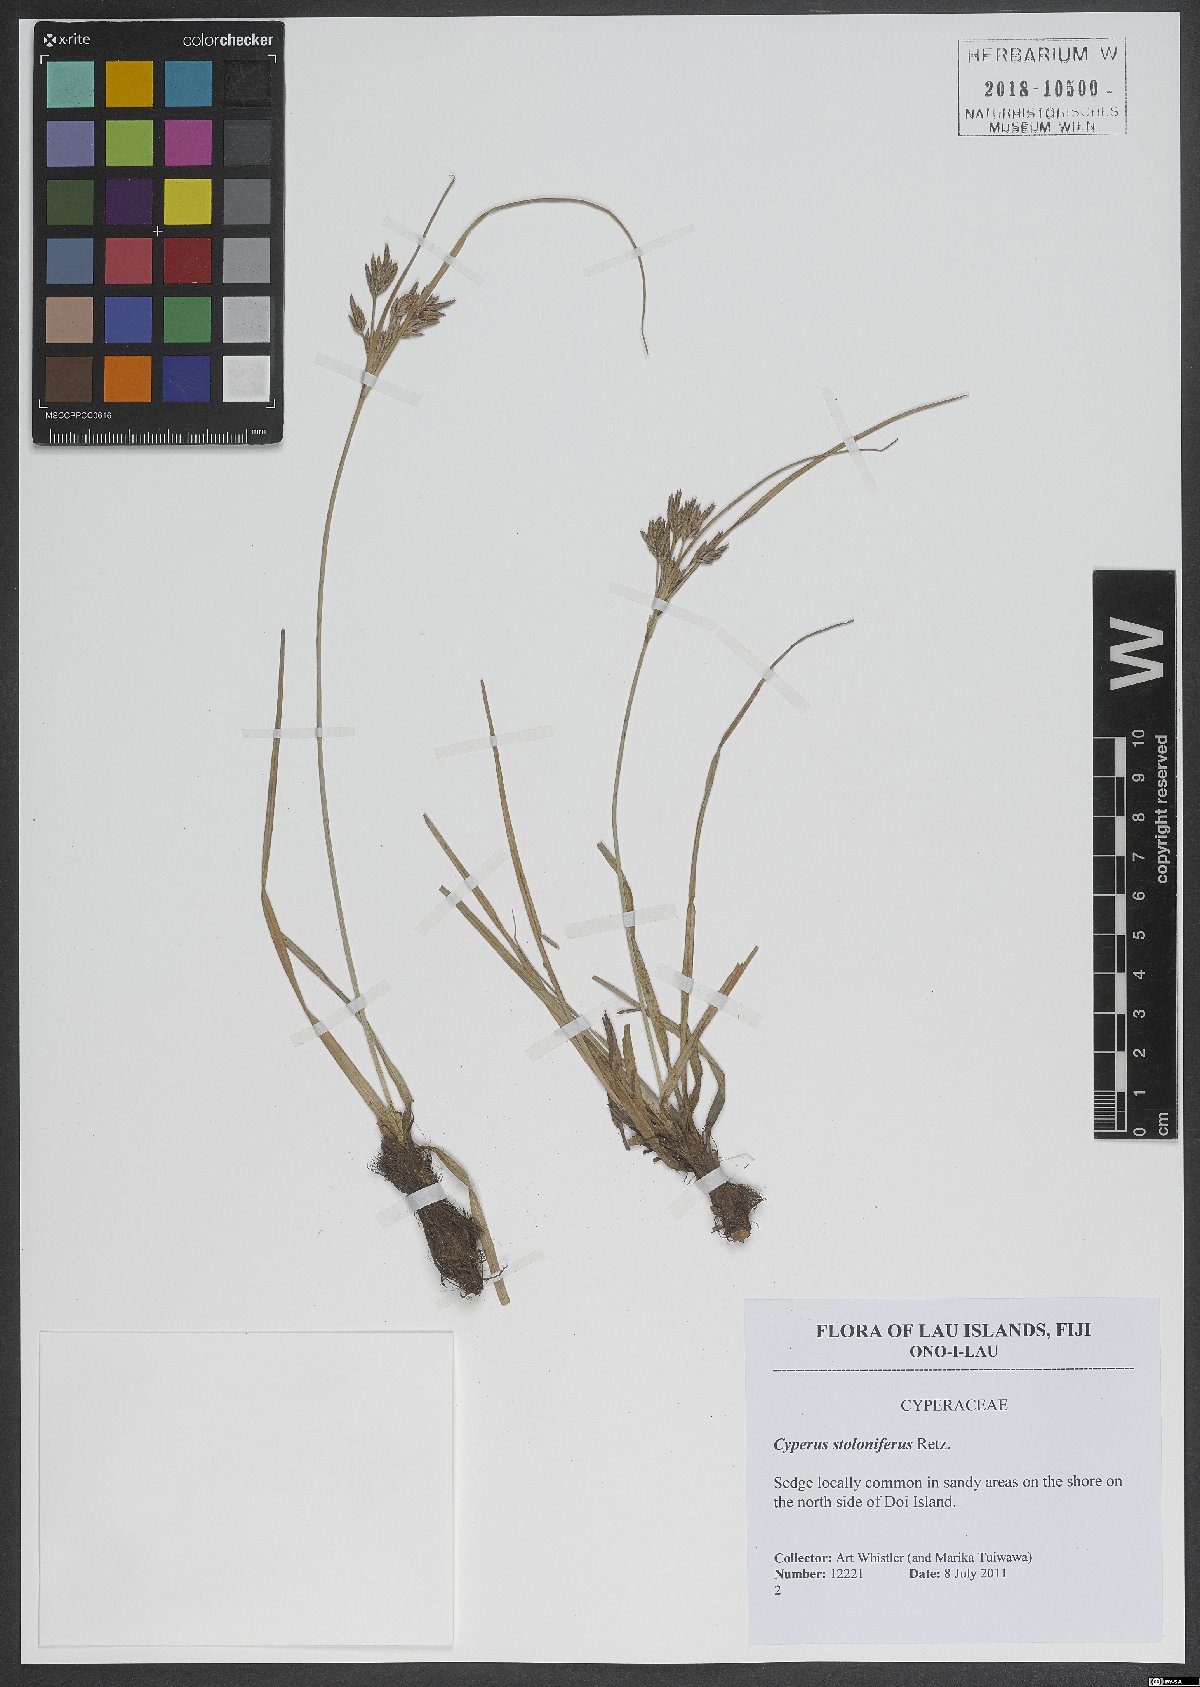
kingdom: Plantae
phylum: Tracheophyta
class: Liliopsida
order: Poales
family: Cyperaceae
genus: Cyperus
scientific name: Cyperus stoloniferus
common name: Nutgrass
